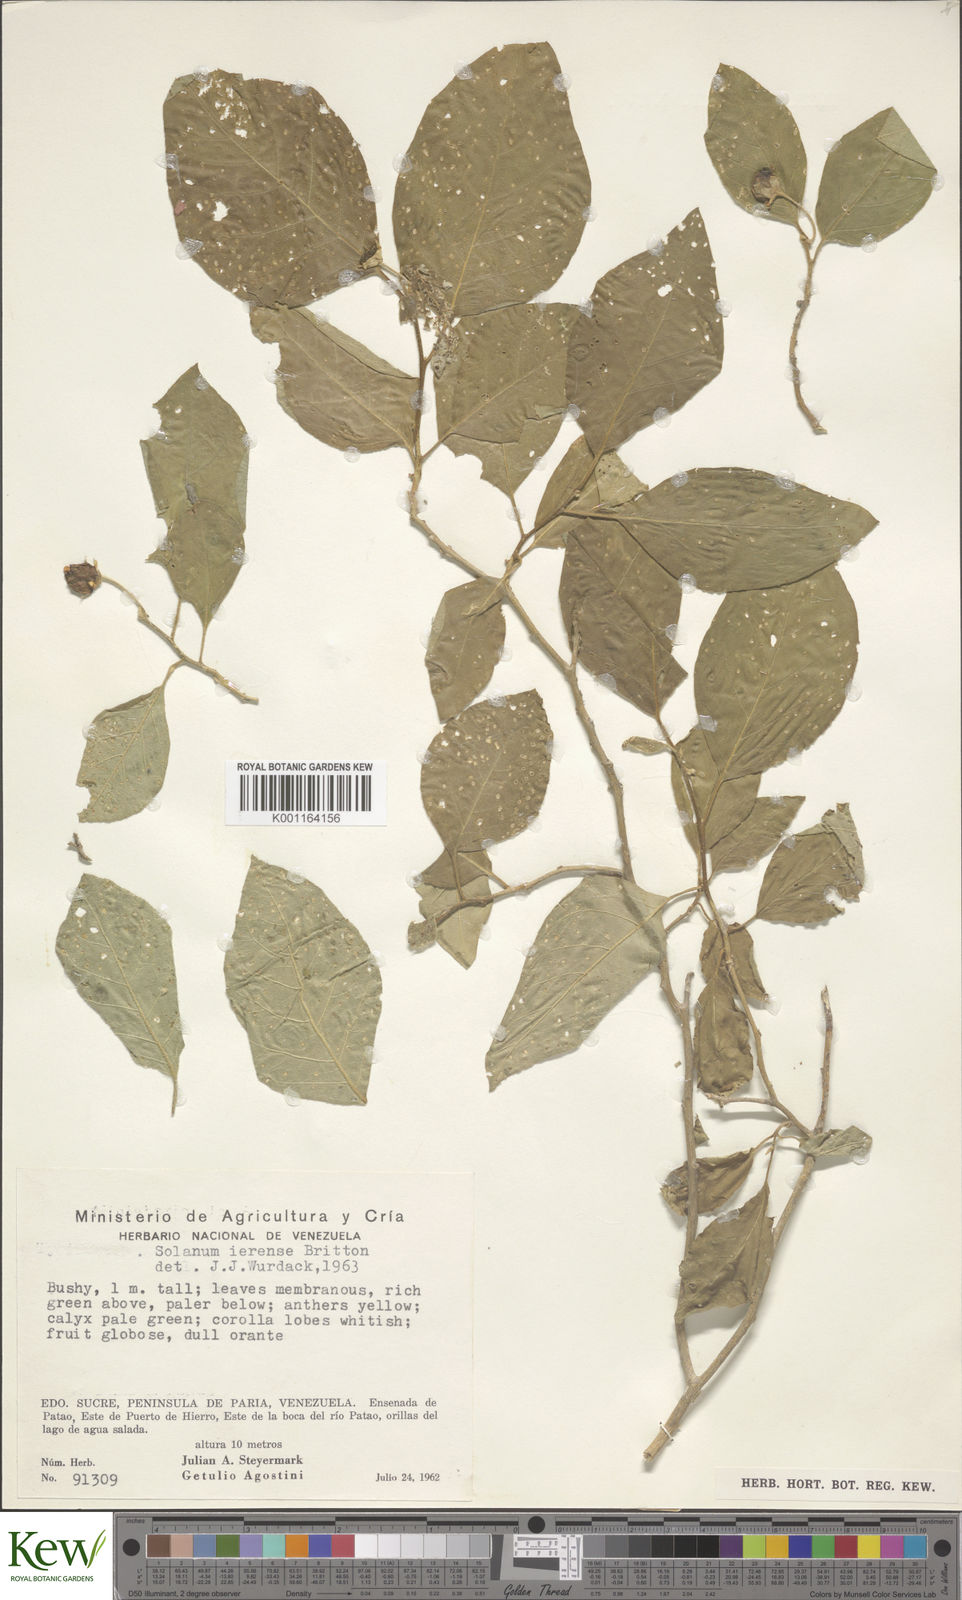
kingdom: Plantae
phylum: Tracheophyta
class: Magnoliopsida
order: Solanales
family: Solanaceae
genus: Solanum
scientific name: Solanum gardneri
